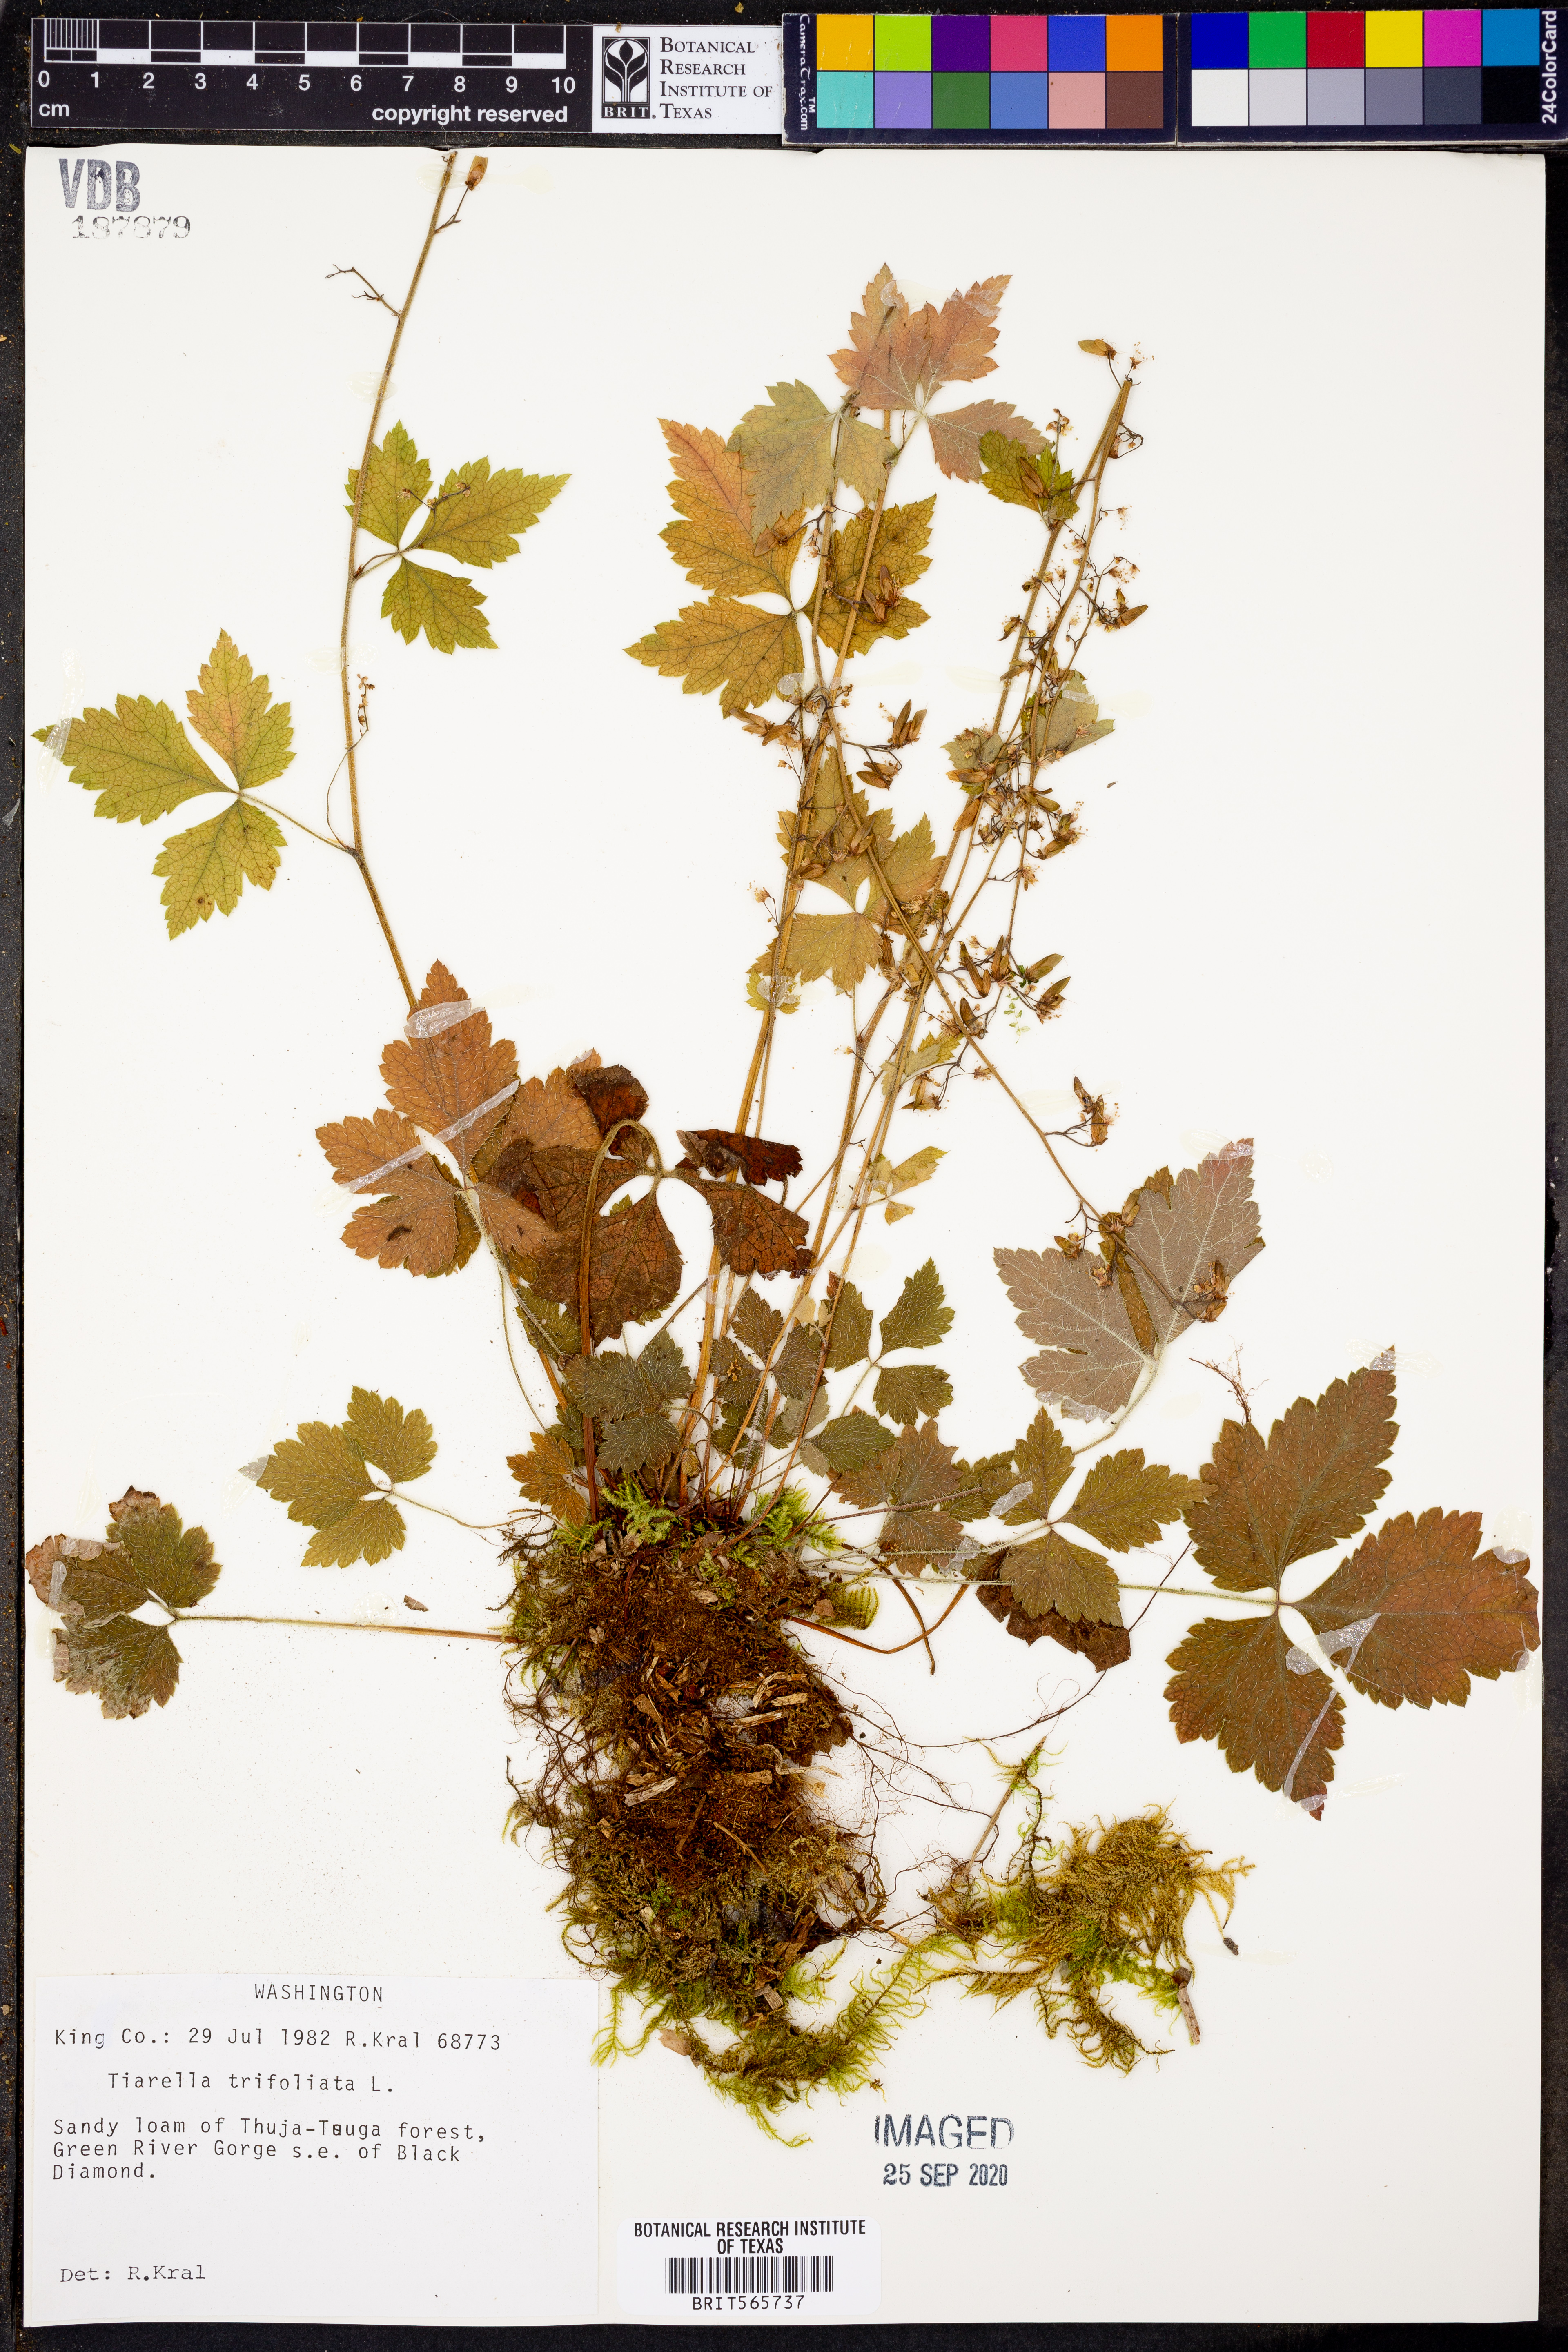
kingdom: Plantae
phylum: Tracheophyta
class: Magnoliopsida
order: Saxifragales
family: Saxifragaceae
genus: Tiarella
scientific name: Tiarella trifoliata
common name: Sugar-scoop
